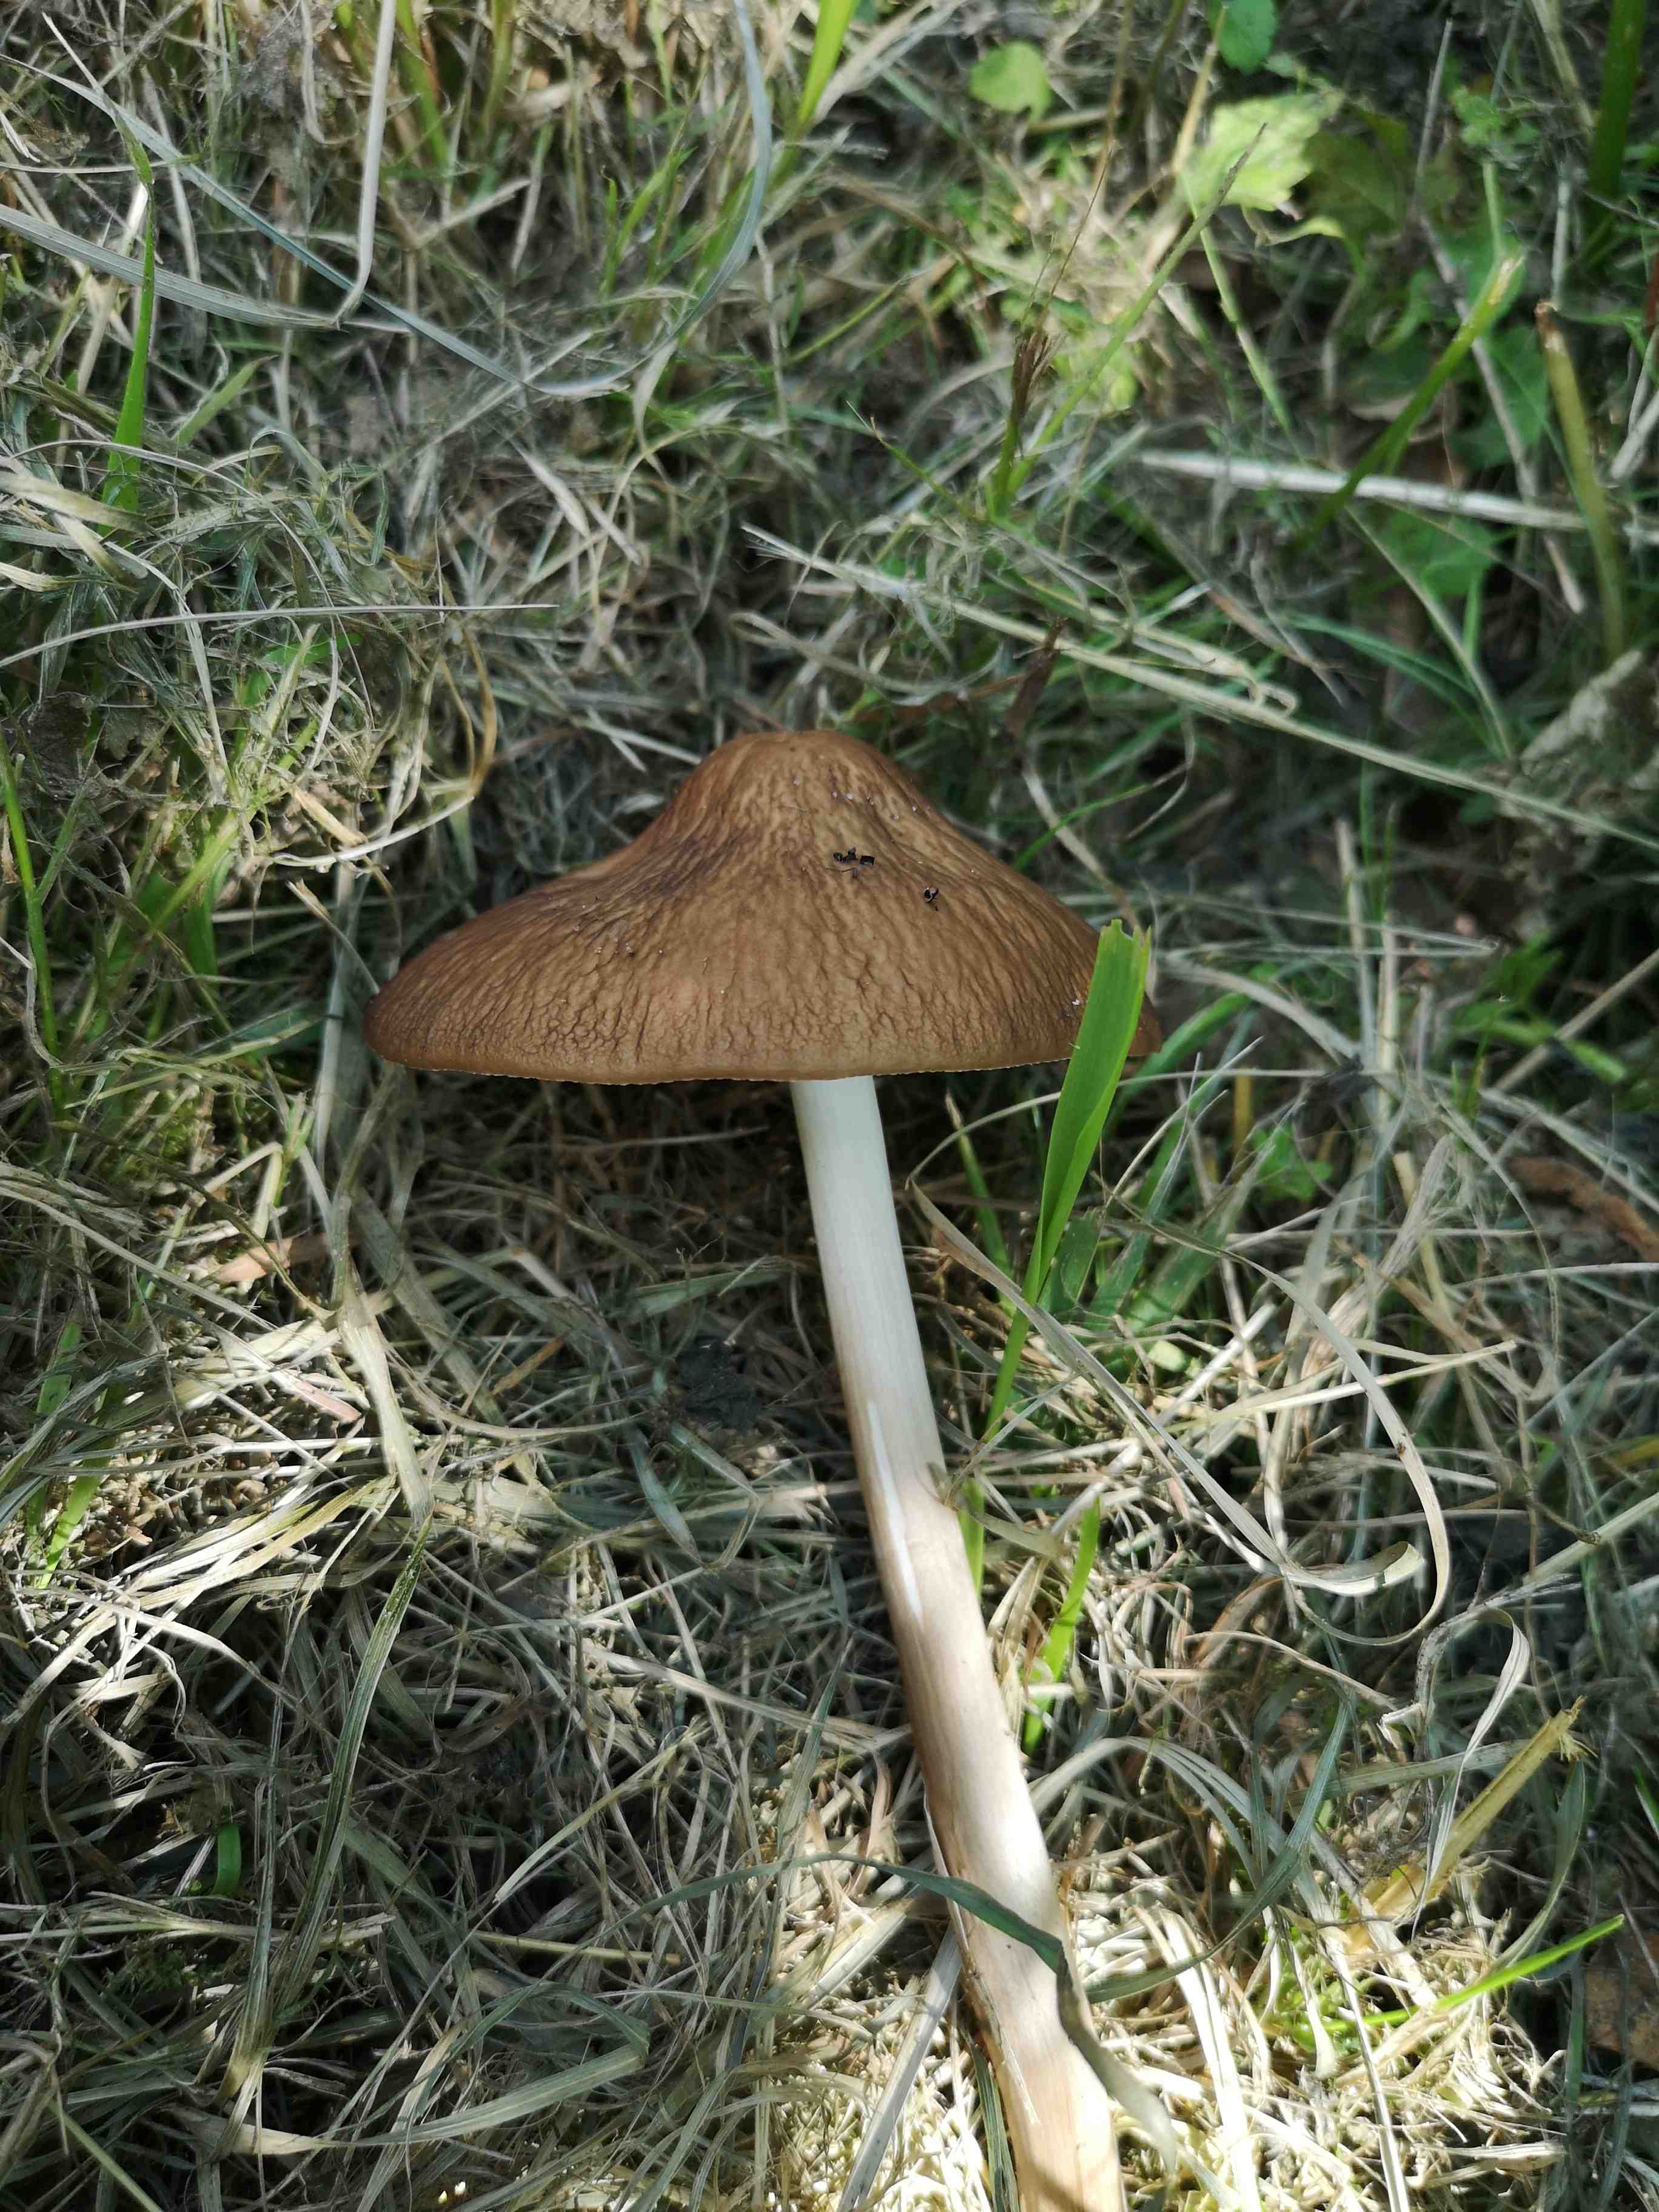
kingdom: Fungi
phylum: Basidiomycota
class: Agaricomycetes
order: Agaricales
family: Physalacriaceae
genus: Hymenopellis
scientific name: Hymenopellis radicata
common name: almindelig pælerodshat
